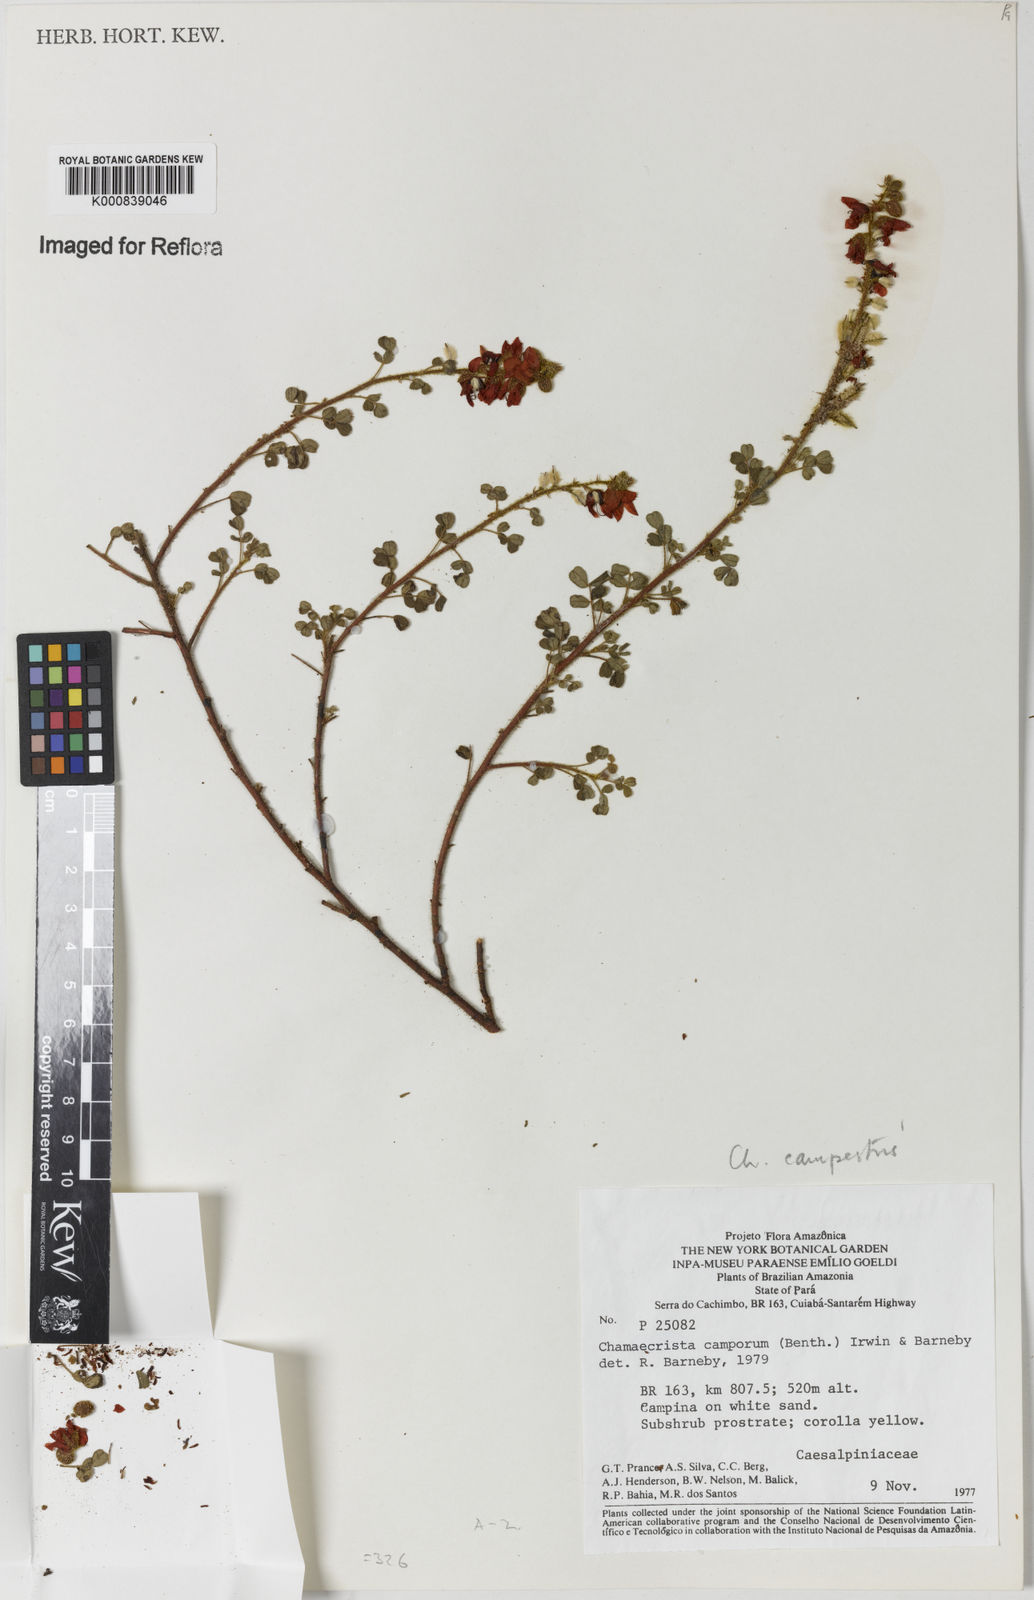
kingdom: Plantae
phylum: Tracheophyta
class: Magnoliopsida
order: Fabales
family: Fabaceae
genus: Chamaecrista
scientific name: Chamaecrista campestris
